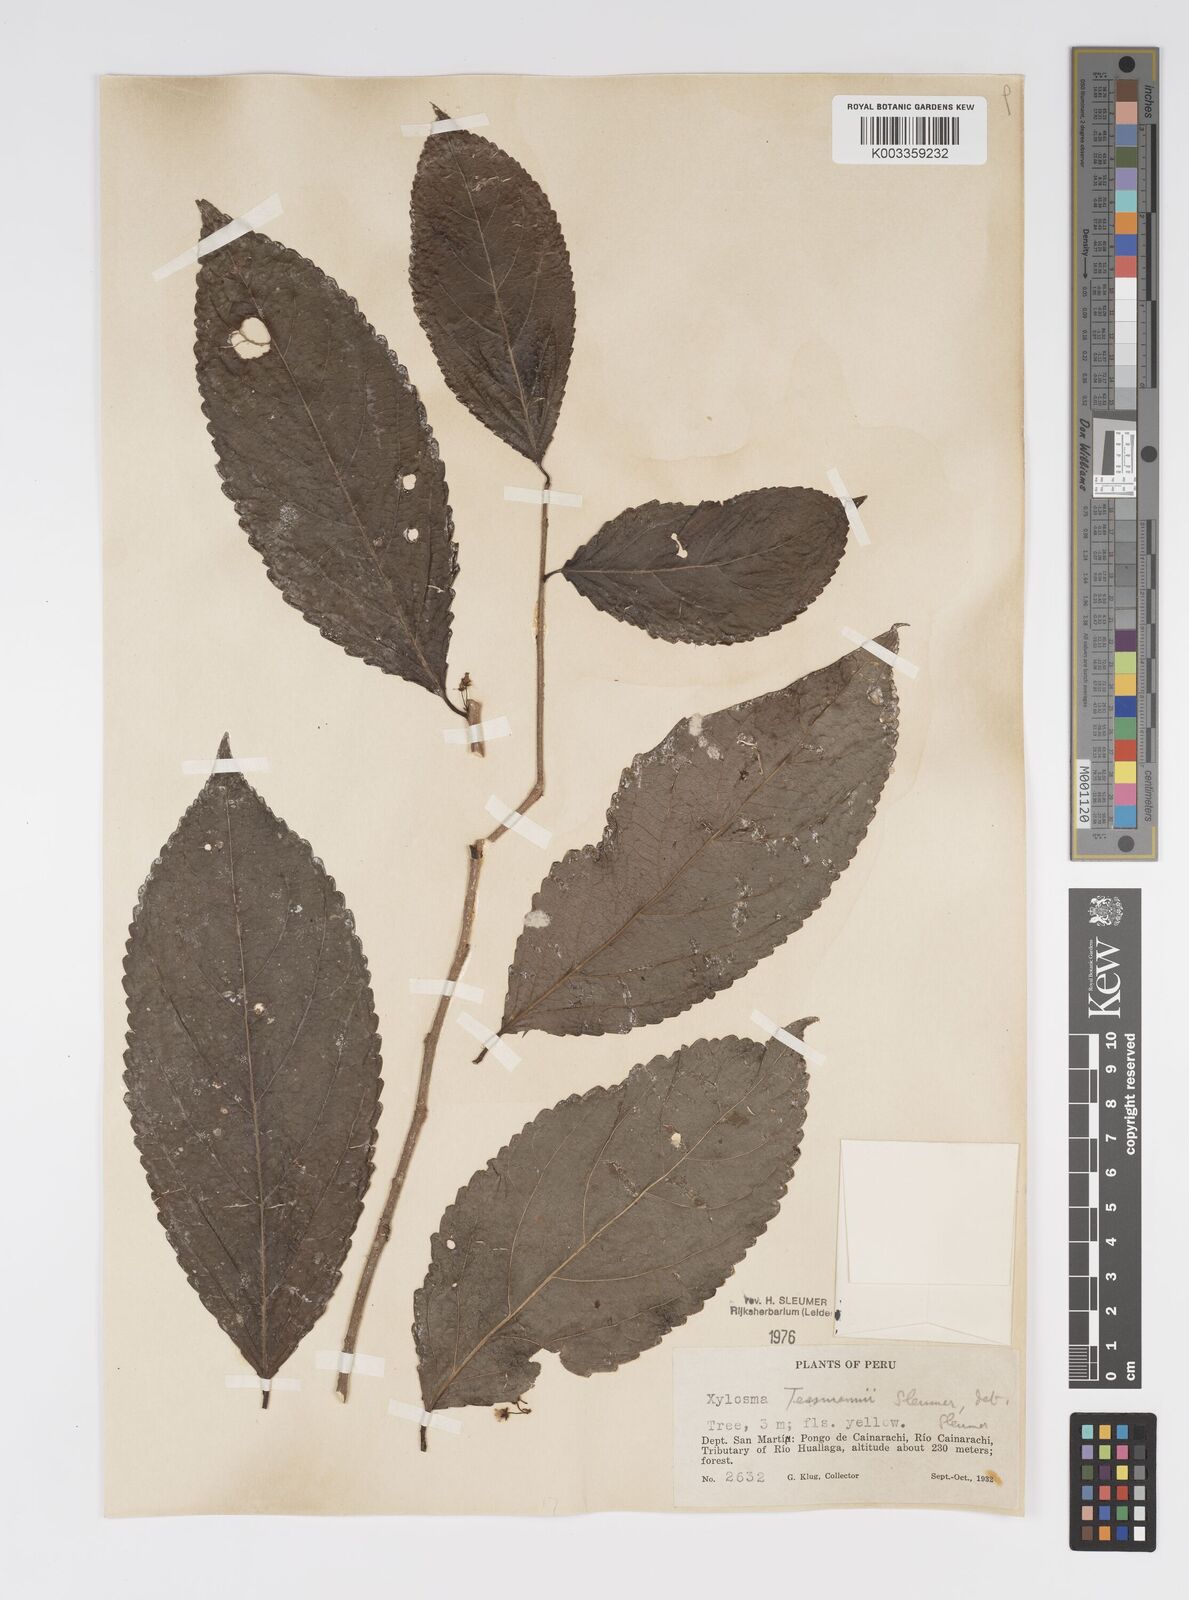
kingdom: Plantae
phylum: Tracheophyta
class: Magnoliopsida
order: Malpighiales
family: Salicaceae
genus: Xylosma
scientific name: Xylosma tessmannii
